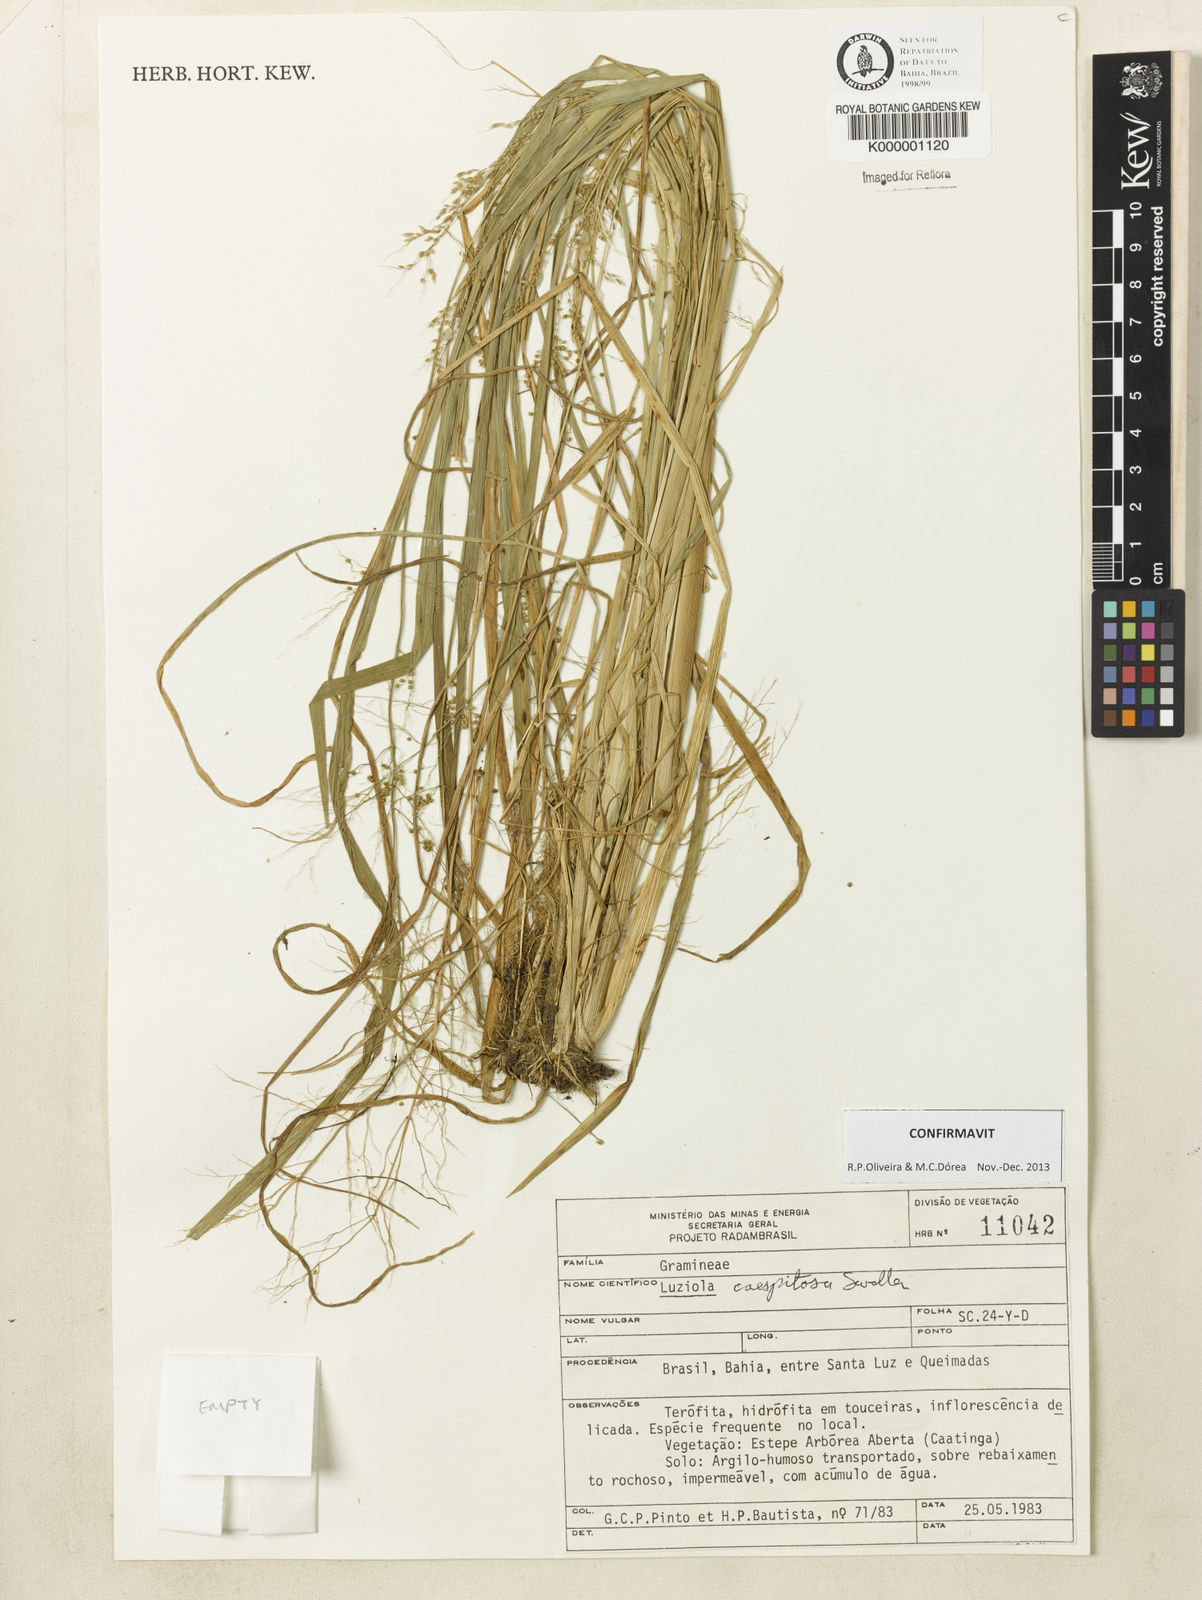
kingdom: Plantae
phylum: Tracheophyta
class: Liliopsida
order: Poales
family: Poaceae
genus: Luziola
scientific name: Luziola caespitosa
